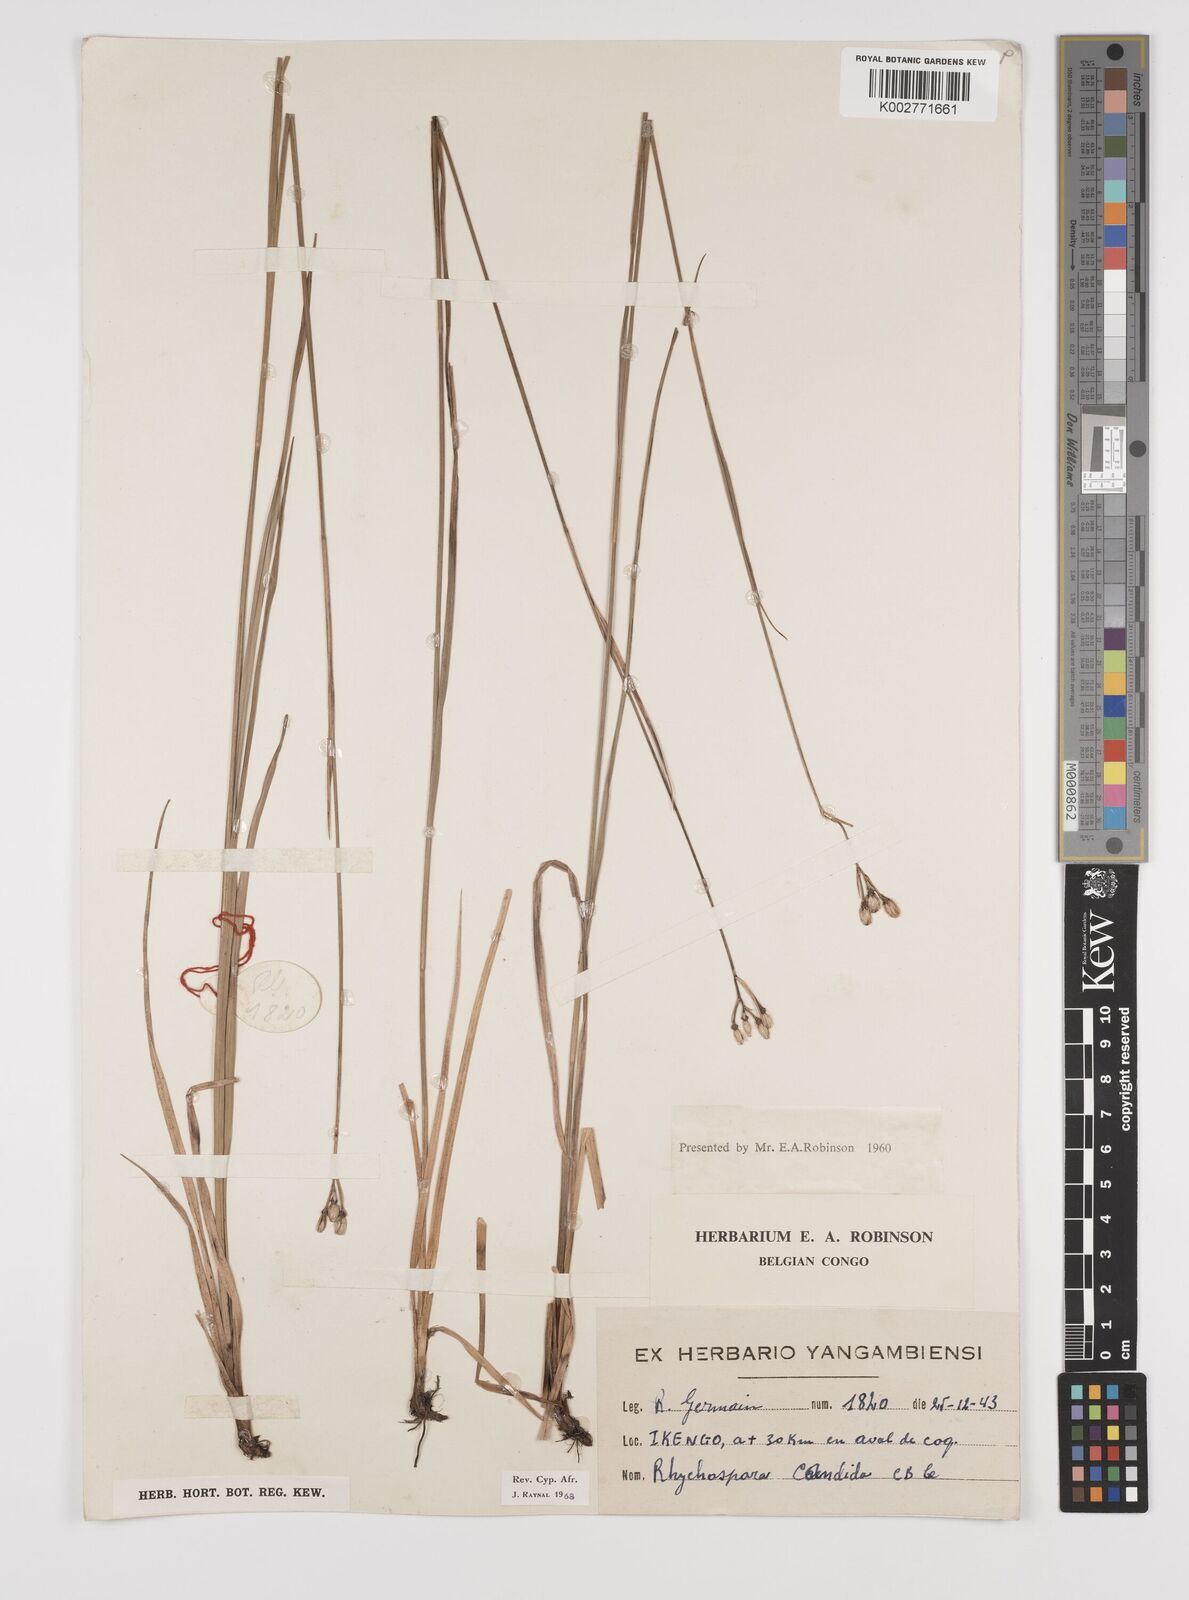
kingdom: Plantae
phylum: Tracheophyta
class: Liliopsida
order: Poales
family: Cyperaceae
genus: Rhynchospora
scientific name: Rhynchospora candida
